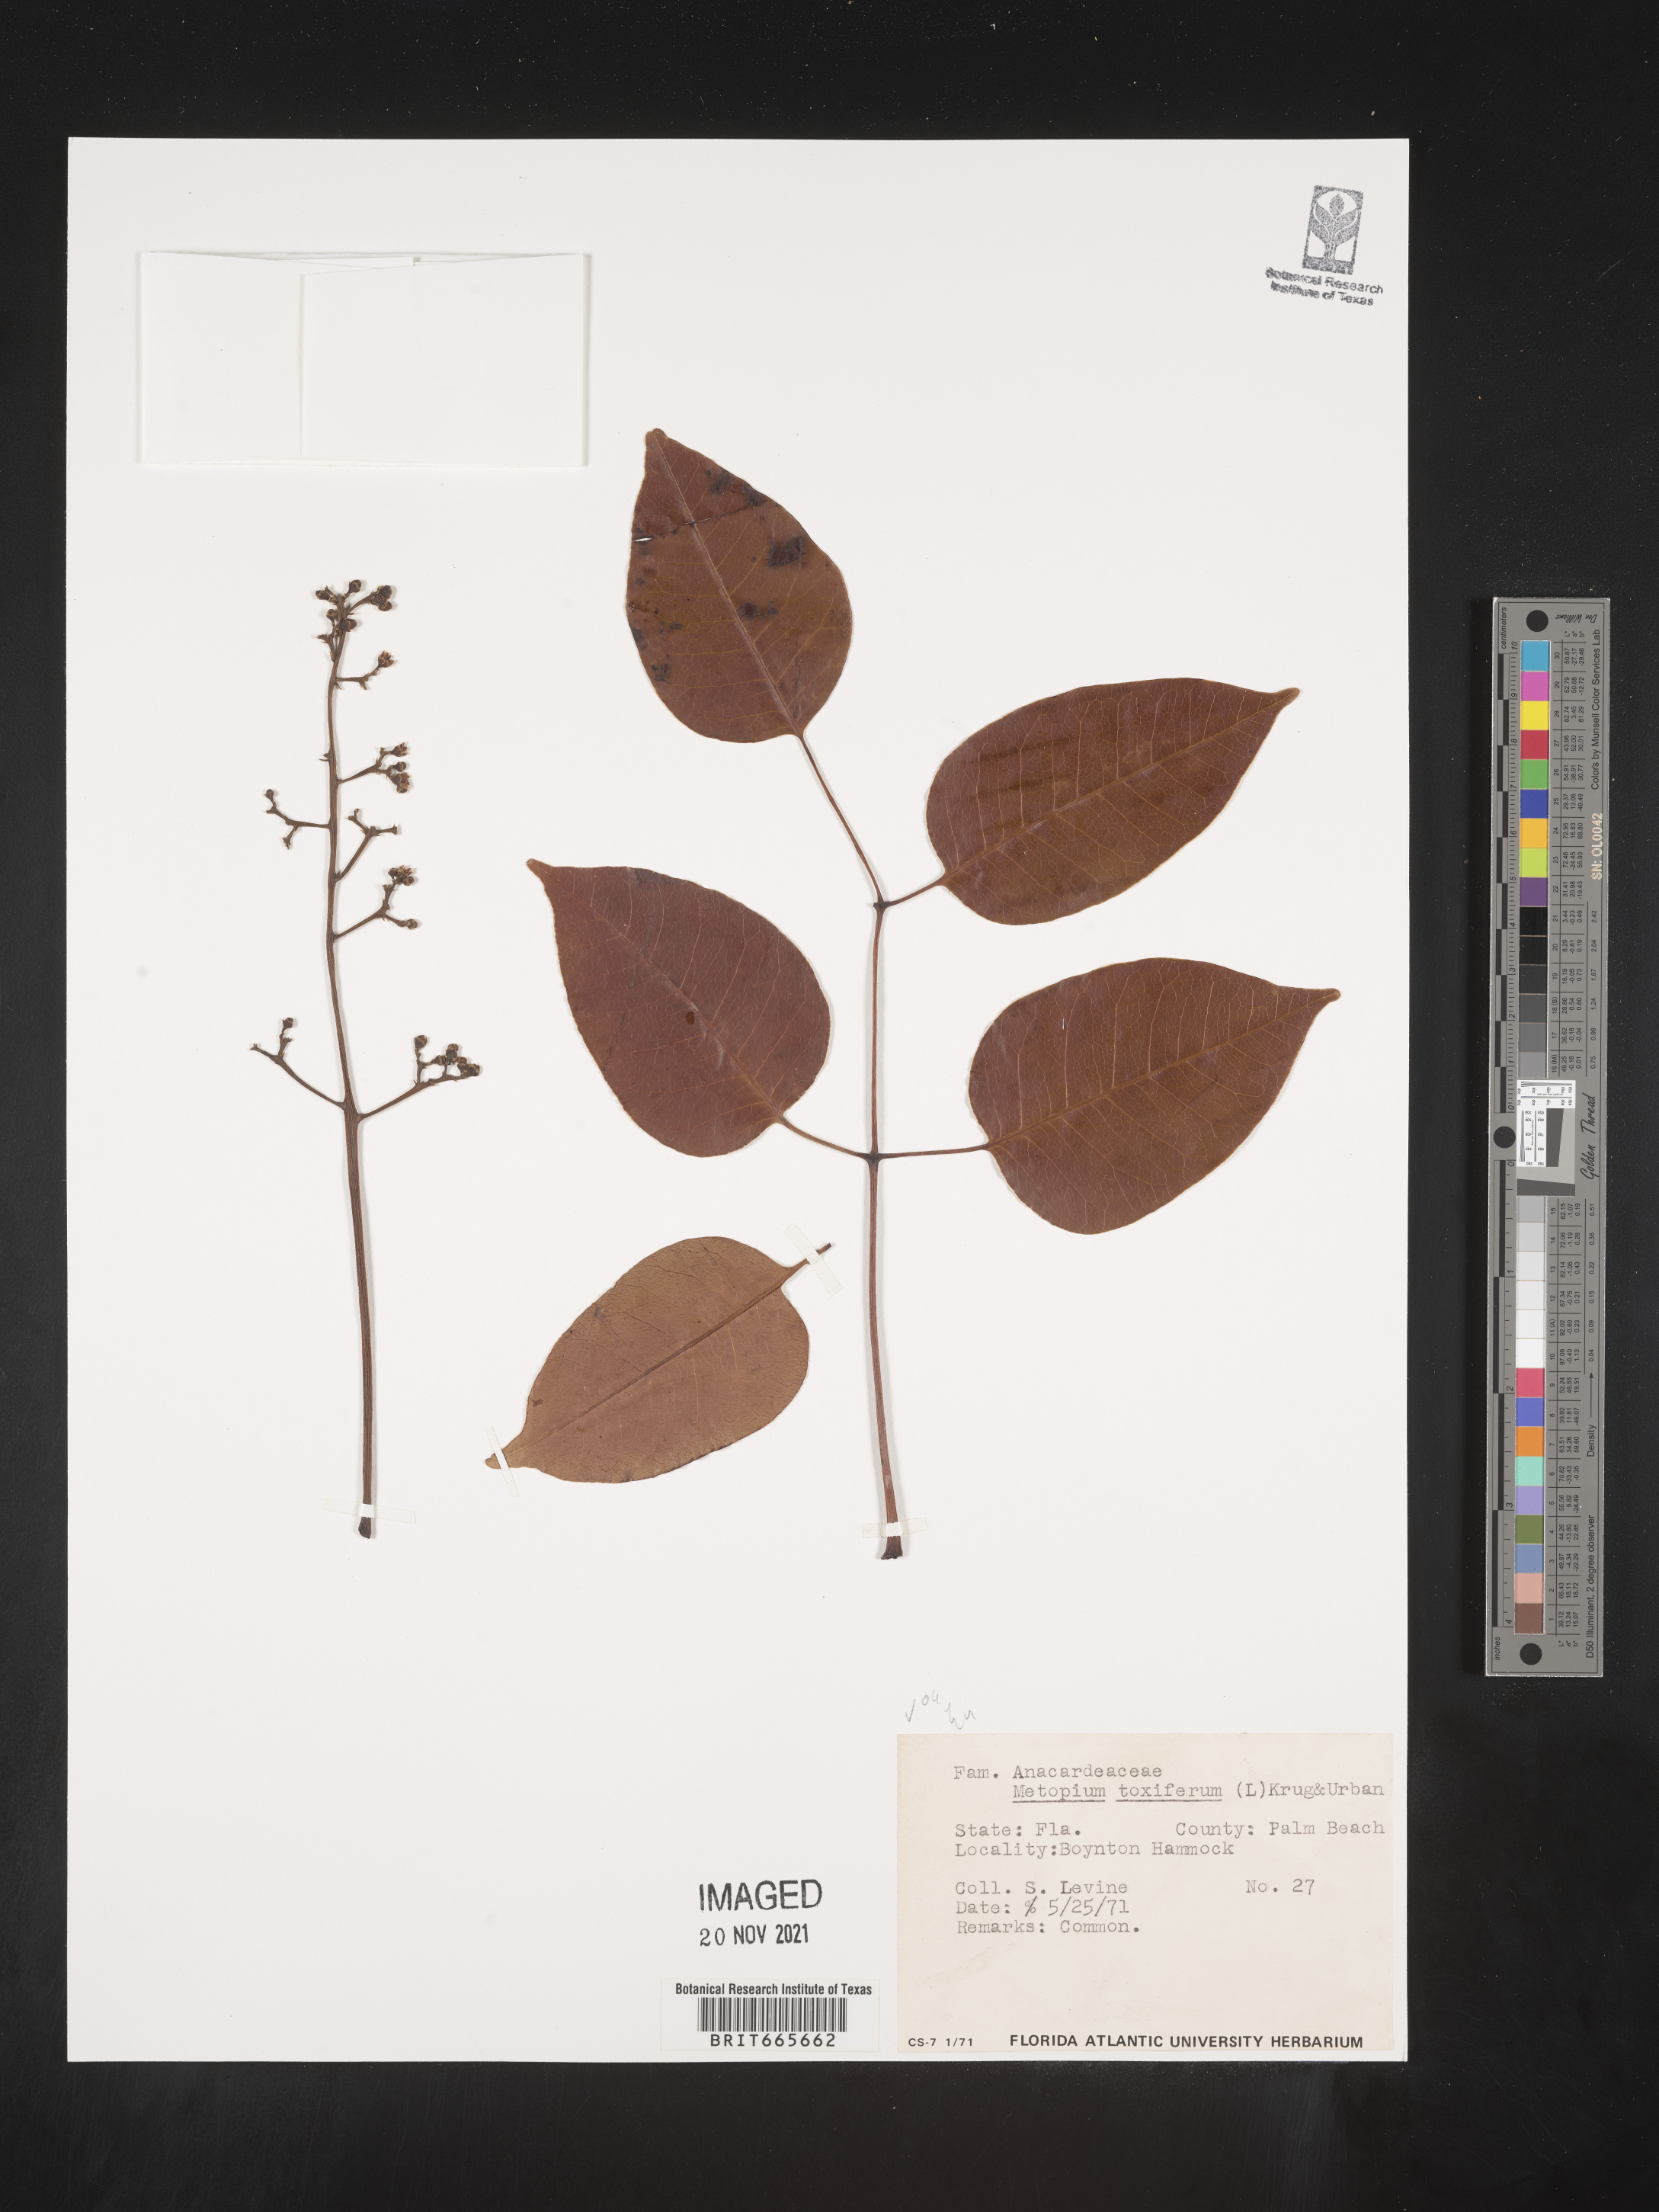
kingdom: Plantae
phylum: Tracheophyta
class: Magnoliopsida
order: Sapindales
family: Anacardiaceae
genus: Metopium
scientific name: Metopium
